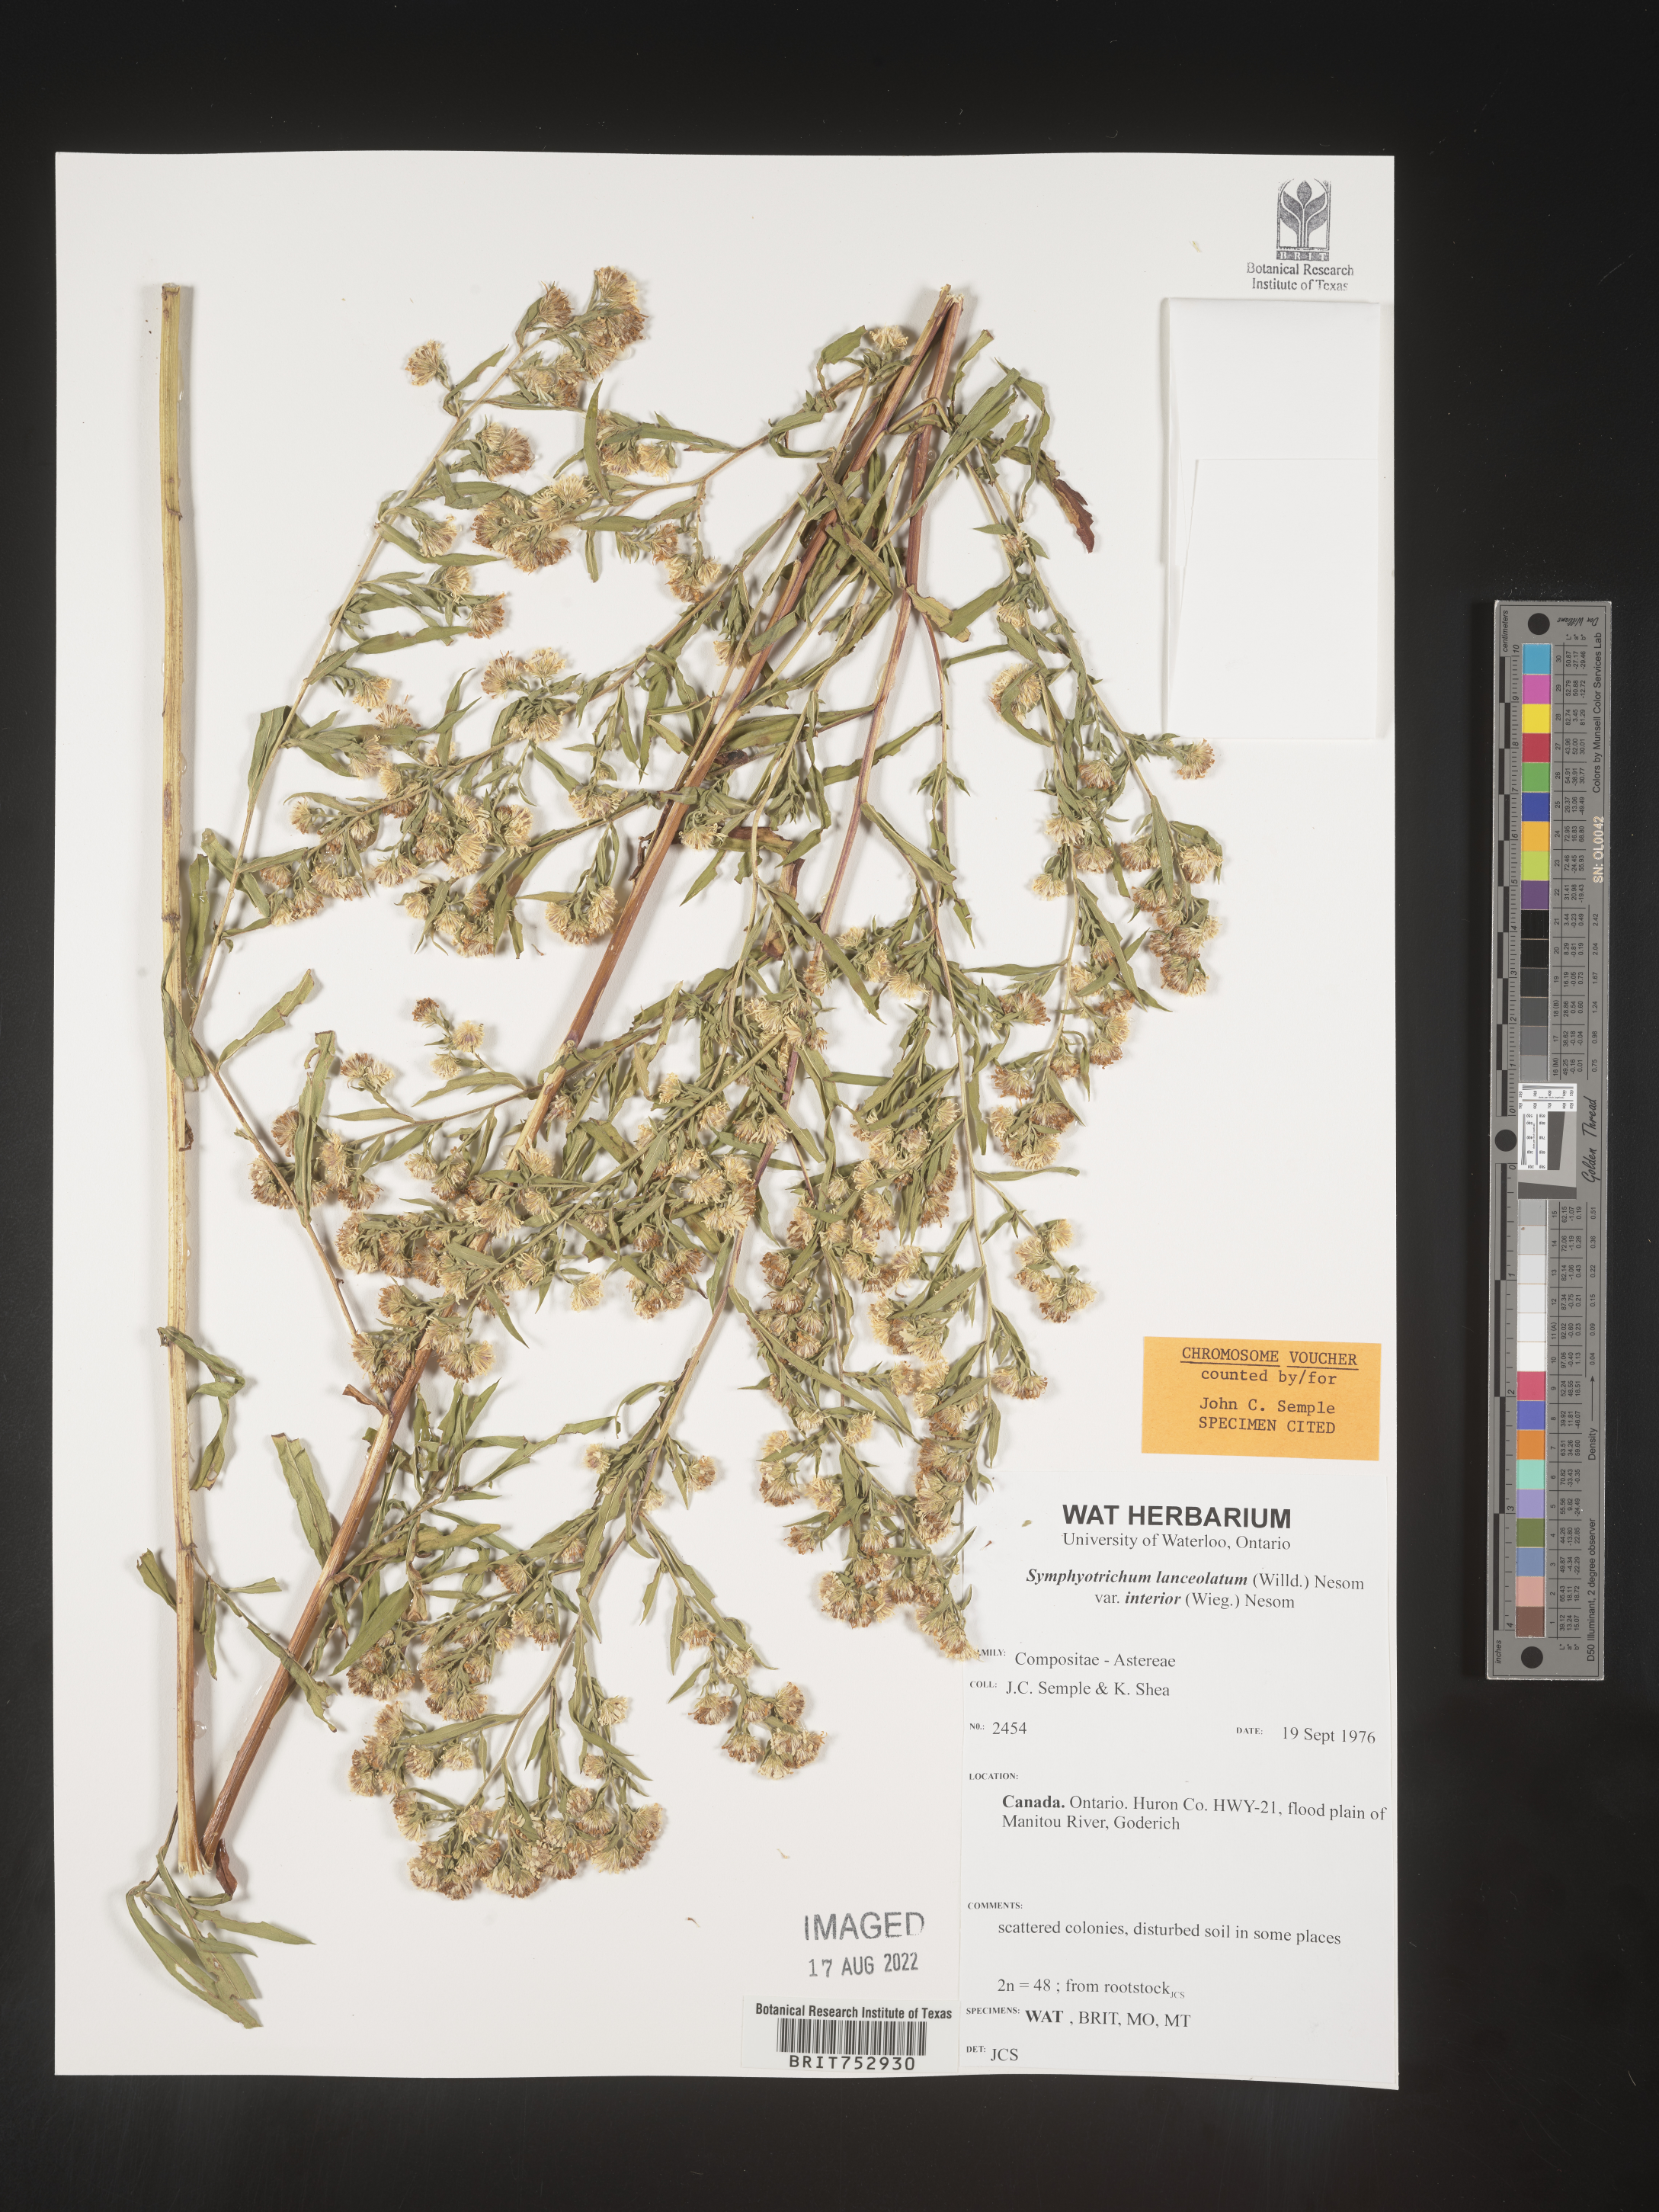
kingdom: Plantae
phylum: Tracheophyta
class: Magnoliopsida
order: Asterales
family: Asteraceae
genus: Symphyotrichum
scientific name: Symphyotrichum lanceolatum
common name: Panicled aster
